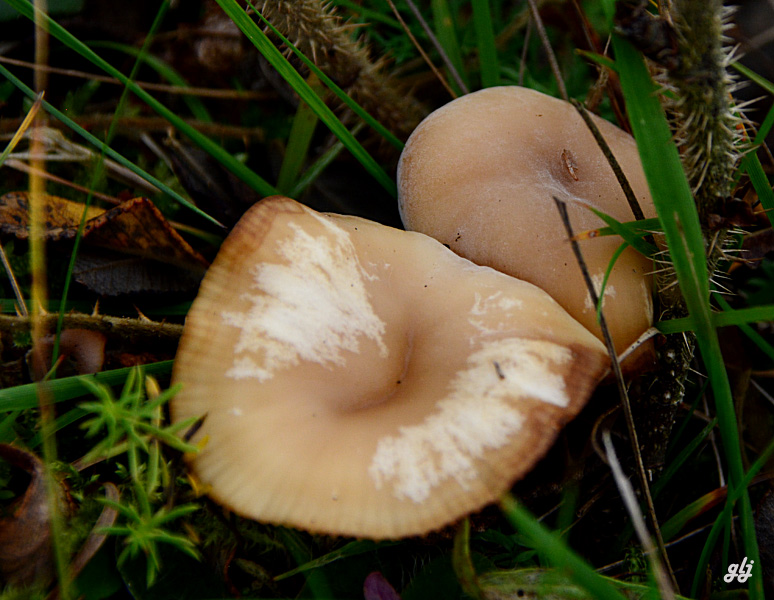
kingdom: Fungi
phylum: Basidiomycota
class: Agaricomycetes
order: Agaricales
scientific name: Agaricales
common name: champignonordenen
